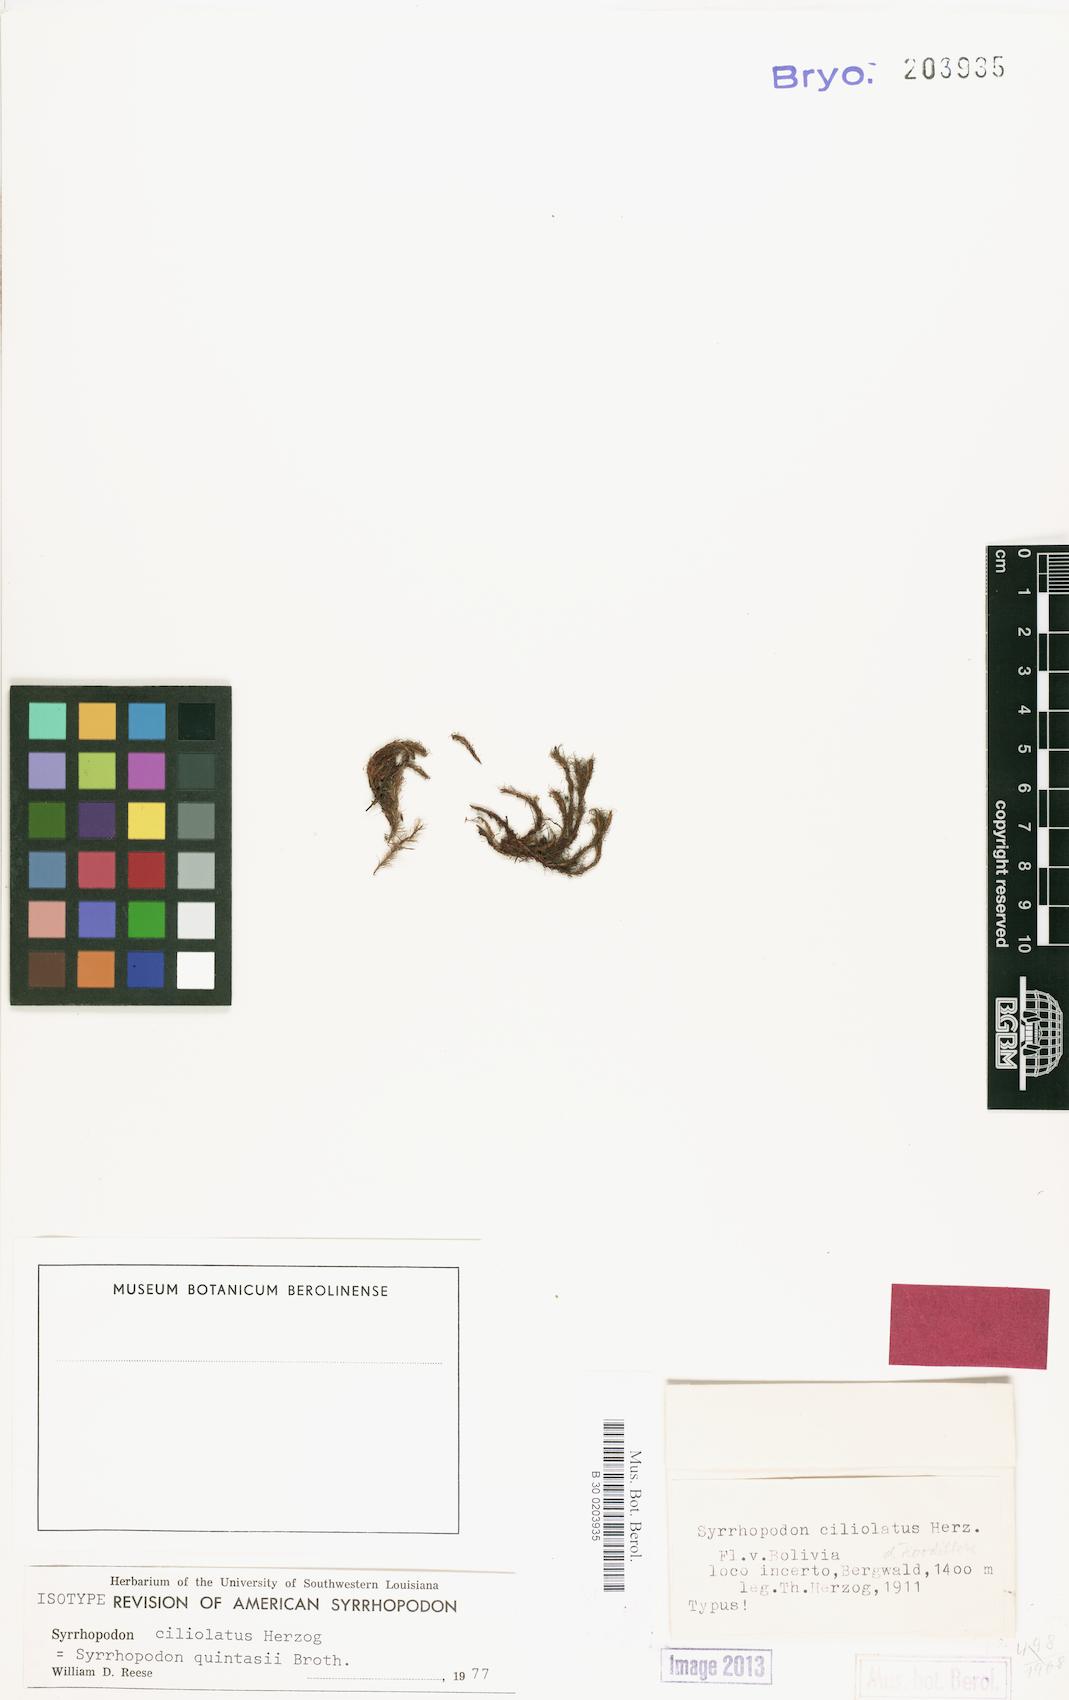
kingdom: Plantae
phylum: Bryophyta
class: Bryopsida
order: Dicranales
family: Calymperaceae
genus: Syrrhopodon
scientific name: Syrrhopodon gardneri
